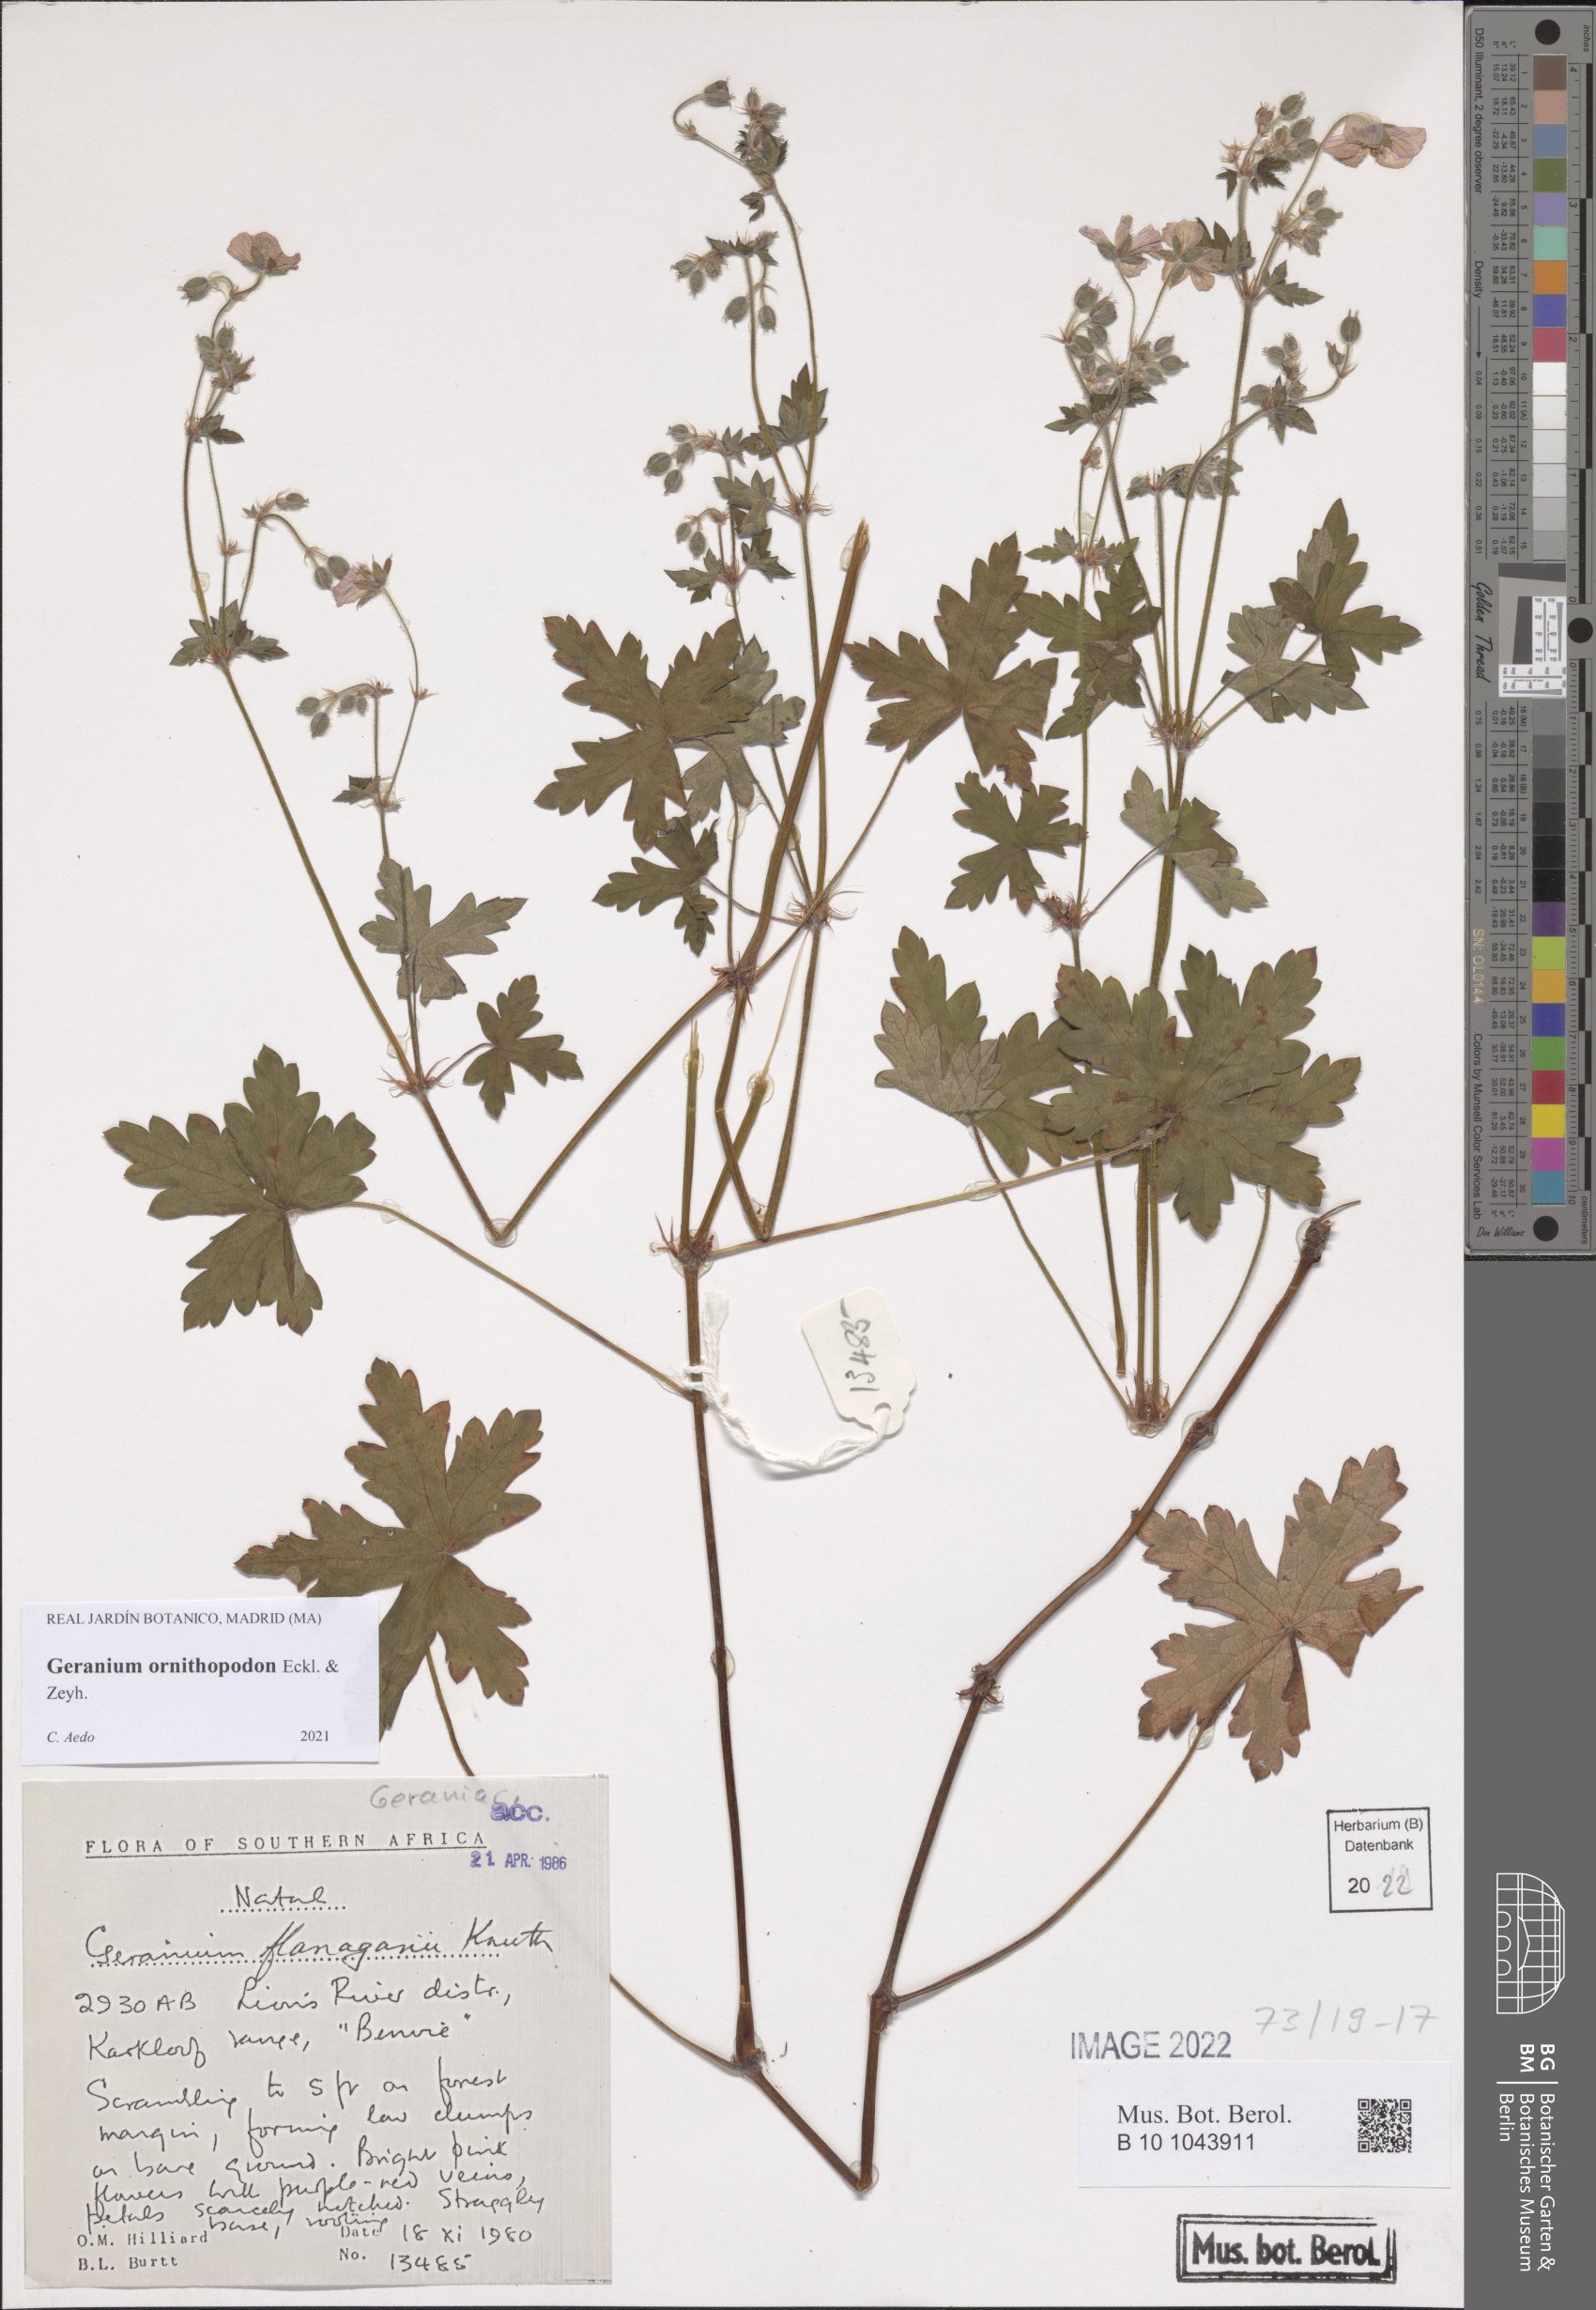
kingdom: Plantae
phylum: Tracheophyta
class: Magnoliopsida
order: Geraniales
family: Geraniaceae
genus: Geranium
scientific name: Geranium ornithopodon
